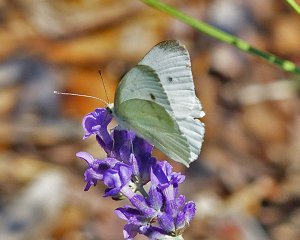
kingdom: Animalia
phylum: Arthropoda
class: Insecta
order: Lepidoptera
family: Pieridae
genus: Pieris
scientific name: Pieris rapae
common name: Cabbage White
